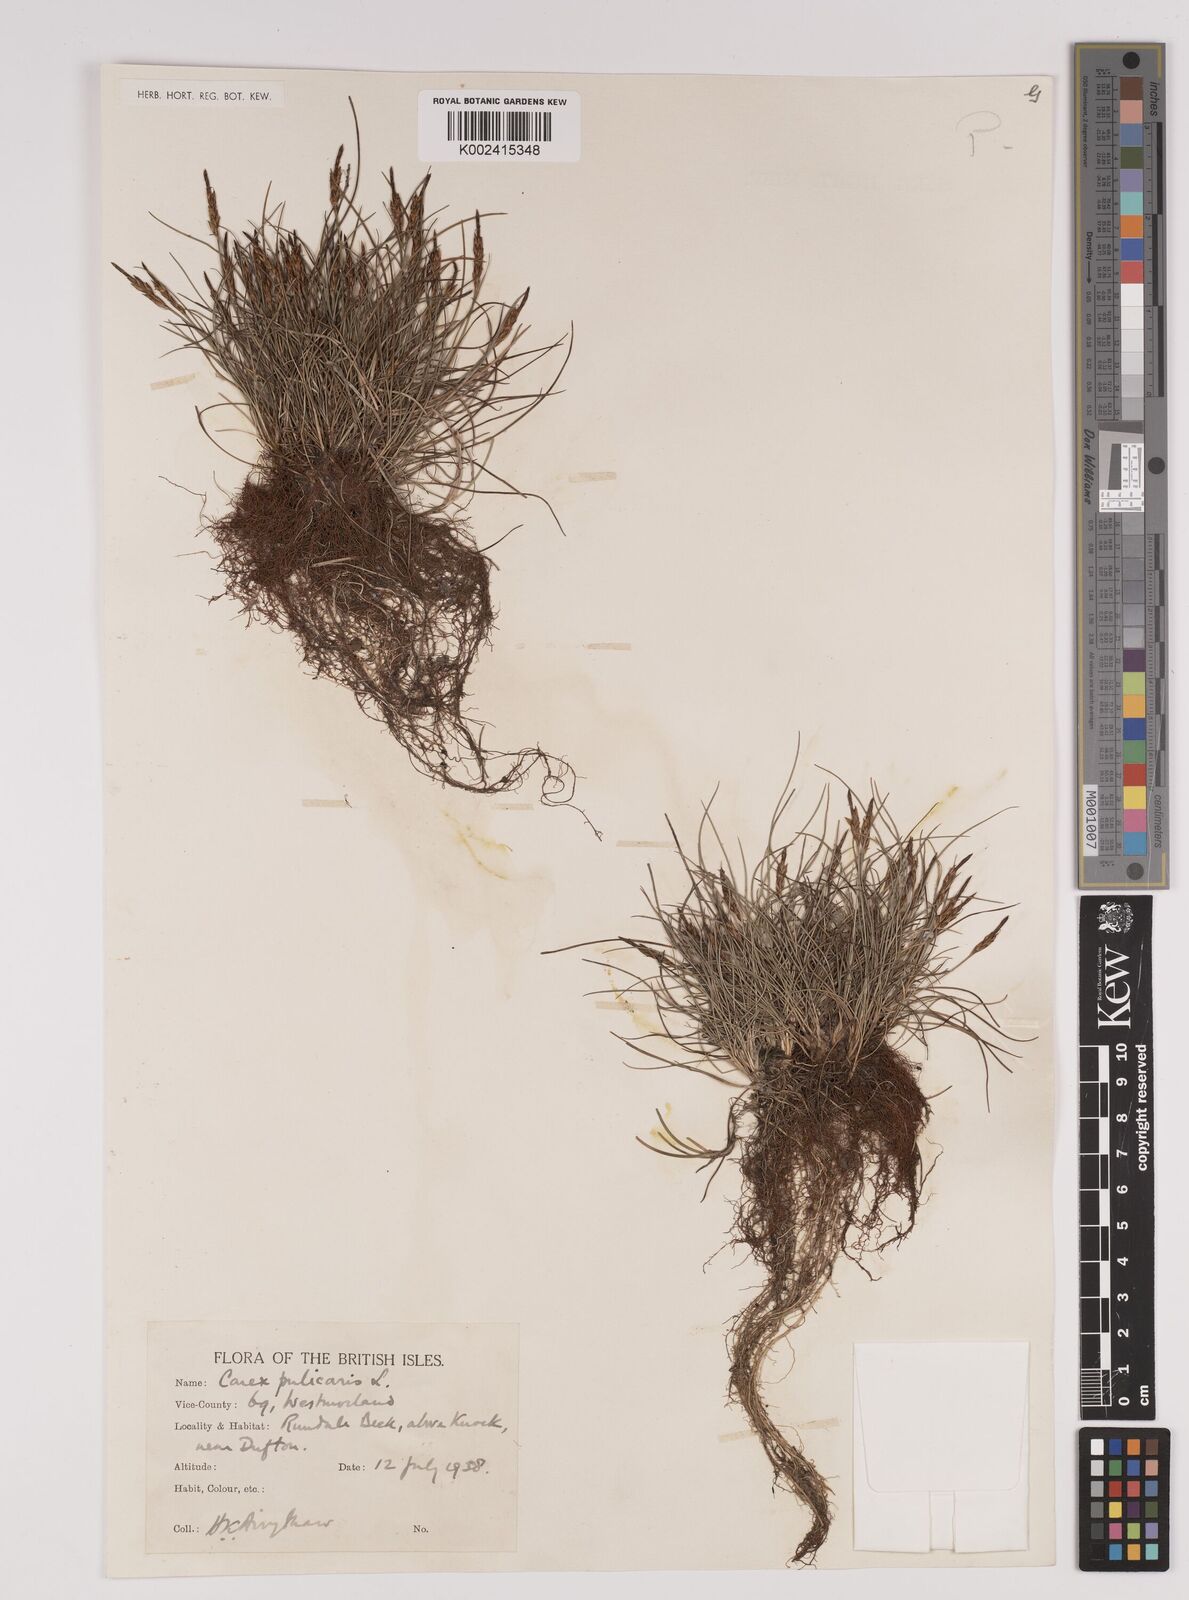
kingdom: Plantae
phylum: Tracheophyta
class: Liliopsida
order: Poales
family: Cyperaceae
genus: Carex
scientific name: Carex pulicaris
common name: Flea sedge
